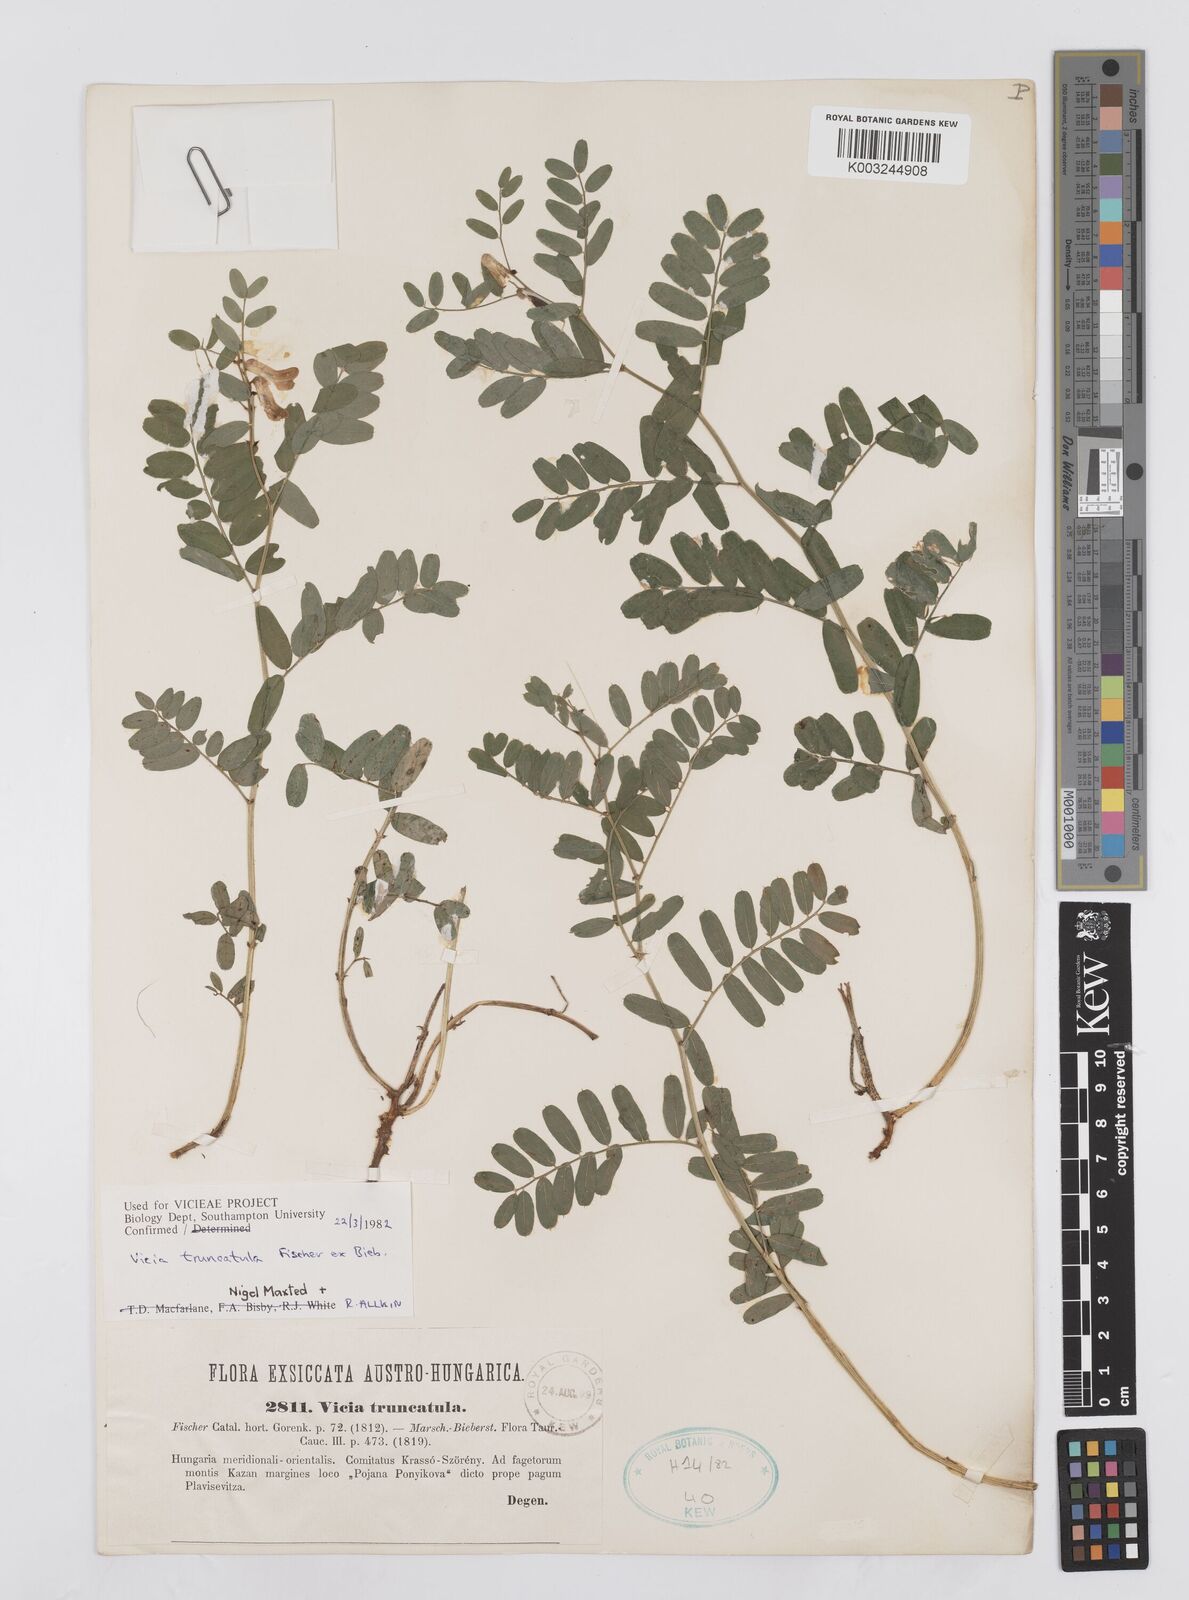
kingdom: Plantae
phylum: Tracheophyta
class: Magnoliopsida
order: Fabales
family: Fabaceae
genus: Vicia
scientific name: Vicia abbreviata
